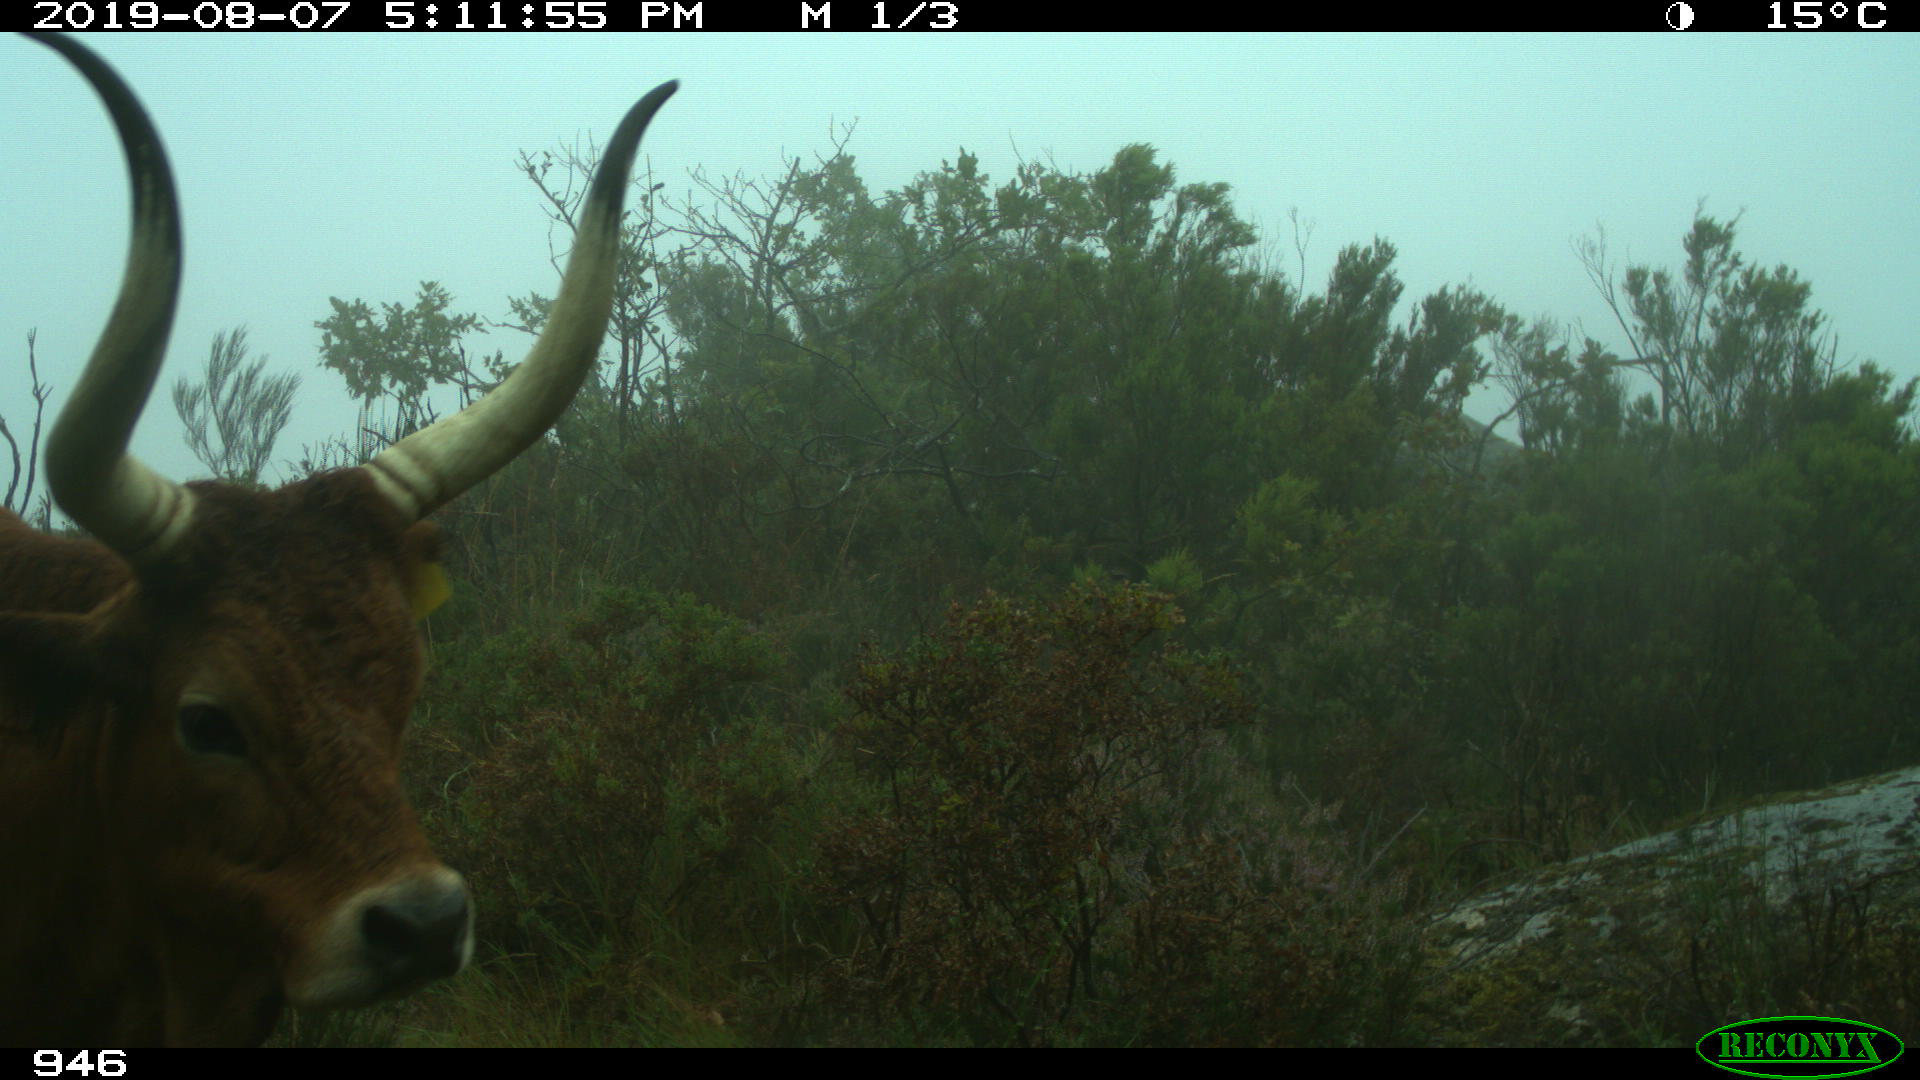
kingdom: Animalia
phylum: Chordata
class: Mammalia
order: Artiodactyla
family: Bovidae
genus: Bos
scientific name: Bos taurus
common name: Domesticated cattle
